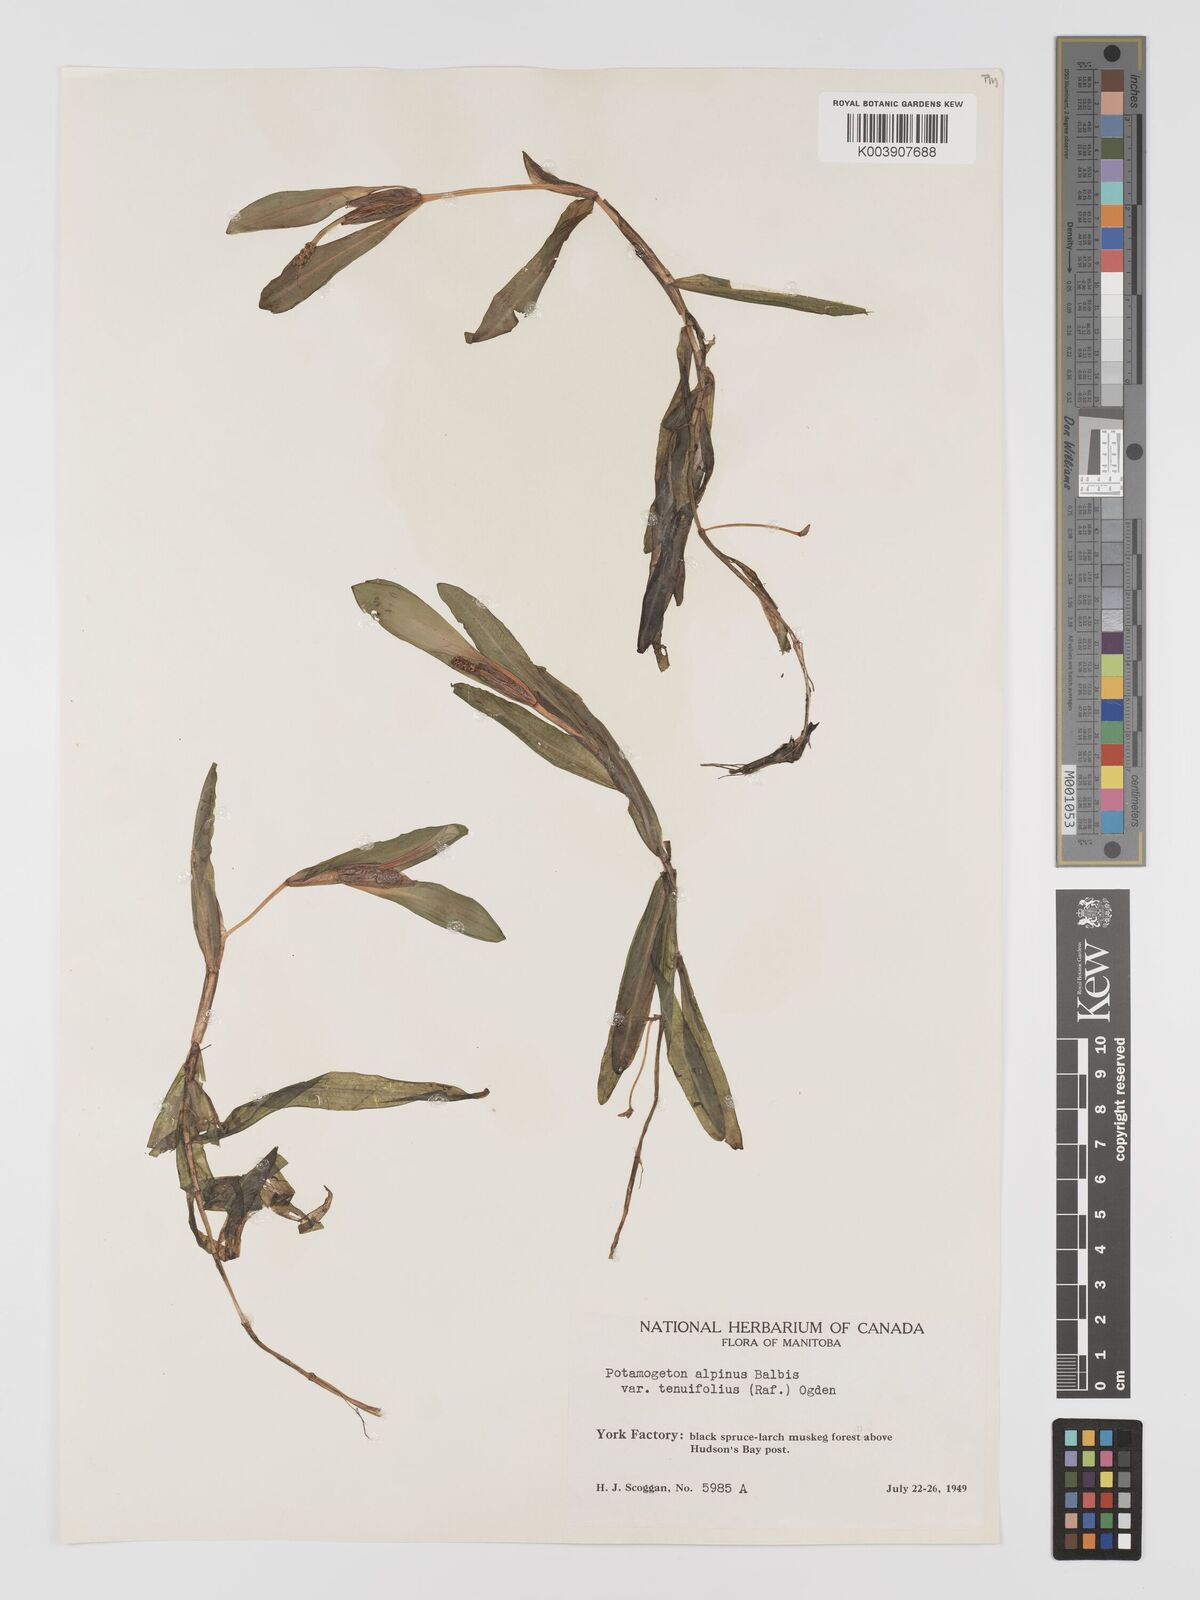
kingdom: Plantae
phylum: Tracheophyta
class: Liliopsida
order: Alismatales
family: Potamogetonaceae
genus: Potamogeton
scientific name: Potamogeton alpinus
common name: Red pondweed
